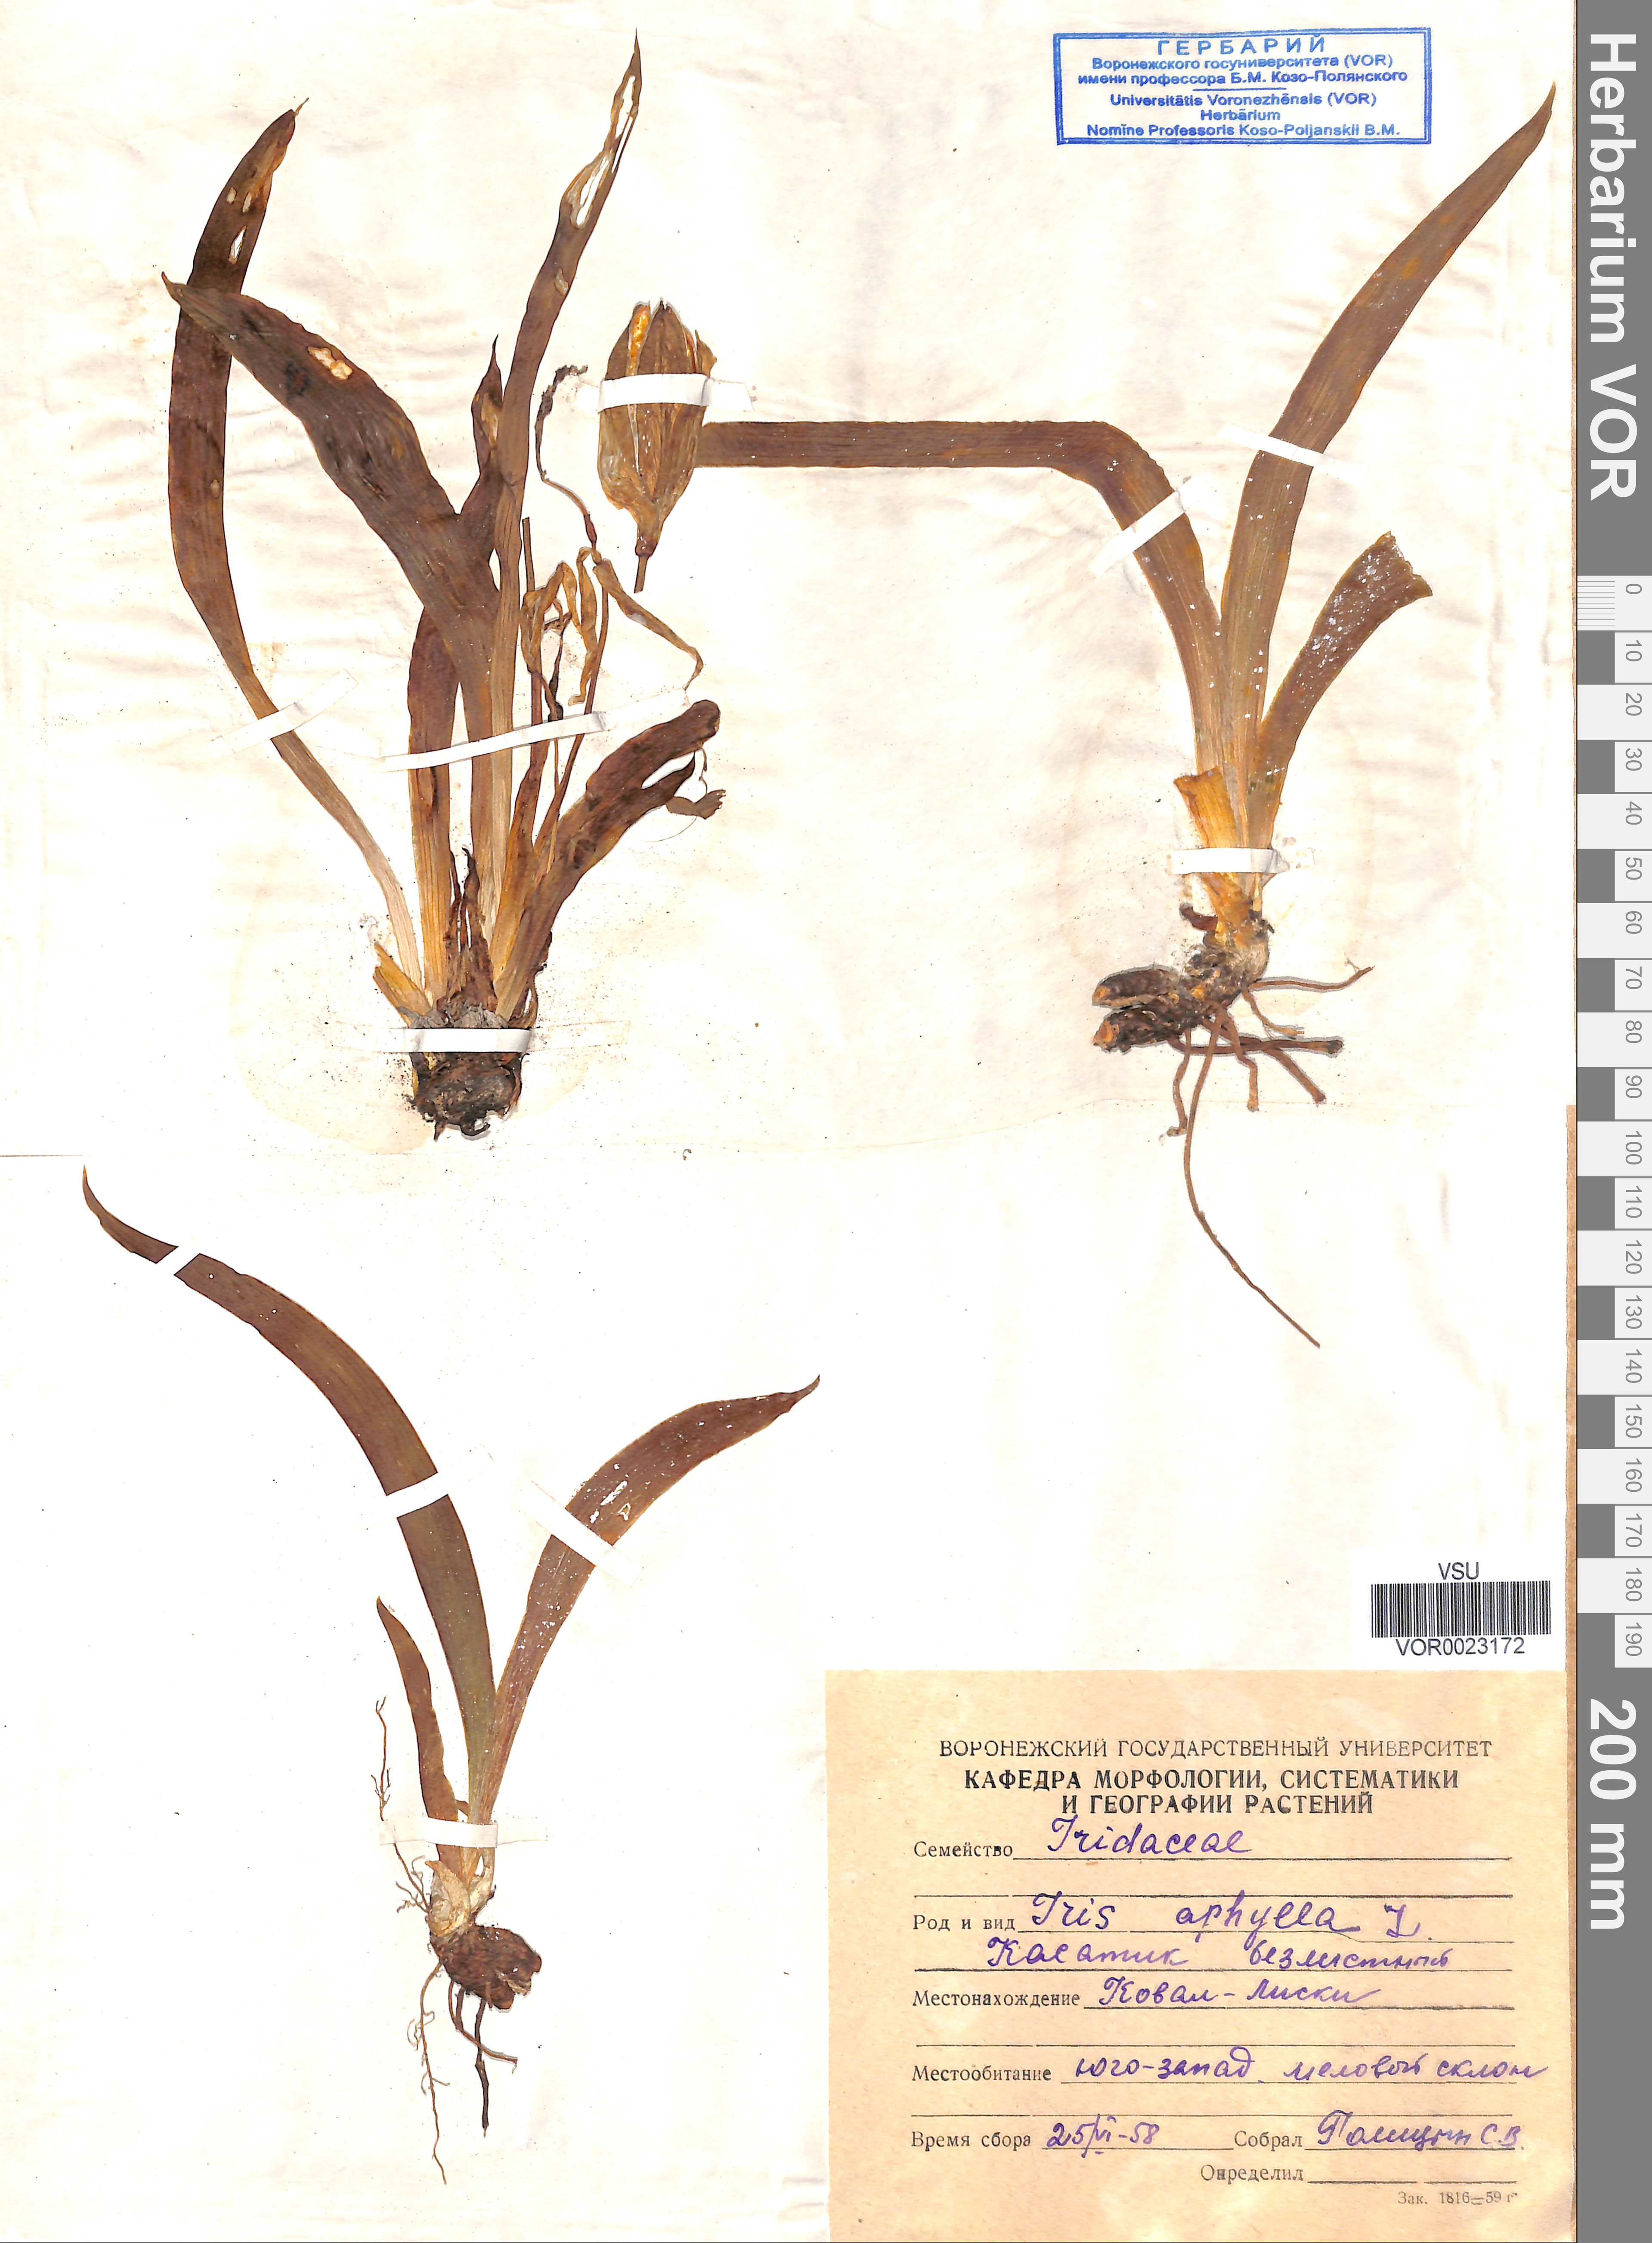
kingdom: Plantae
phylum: Tracheophyta
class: Liliopsida
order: Asparagales
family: Iridaceae
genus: Iris
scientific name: Iris aphylla
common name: Stool iris
